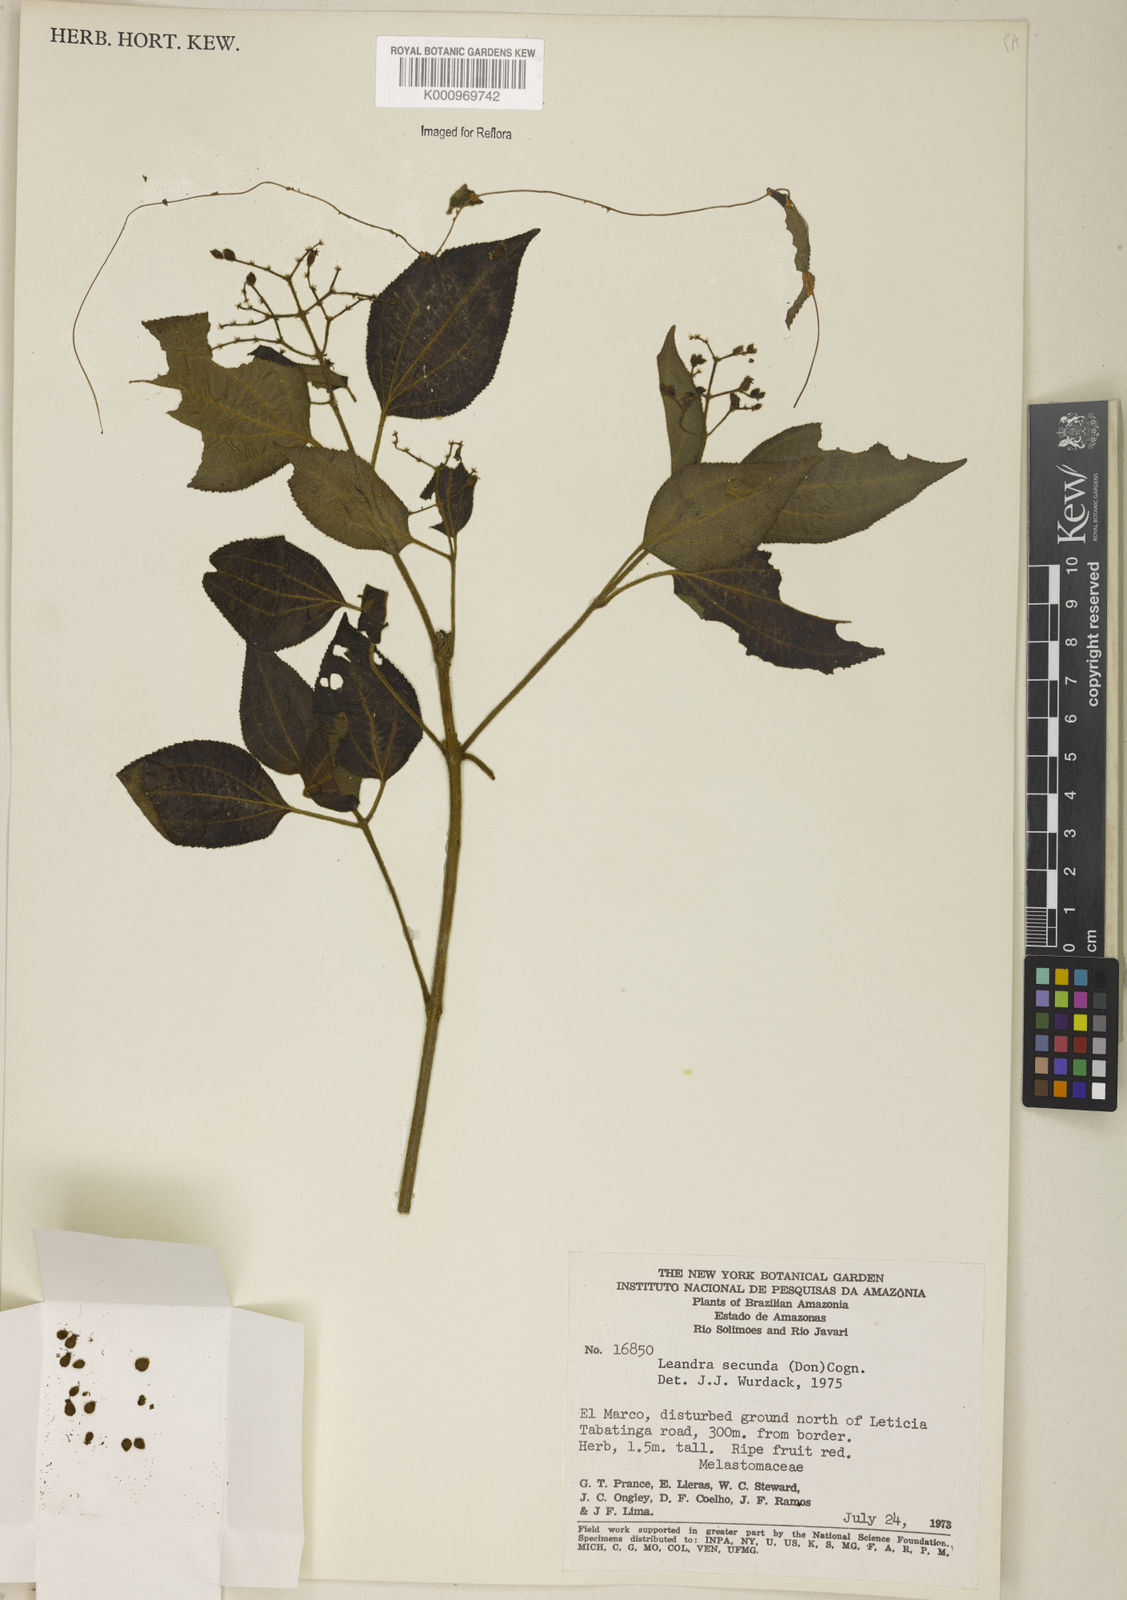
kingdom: Plantae
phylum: Tracheophyta
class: Magnoliopsida
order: Myrtales
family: Melastomataceae
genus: Miconia
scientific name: Miconia neosecunda
